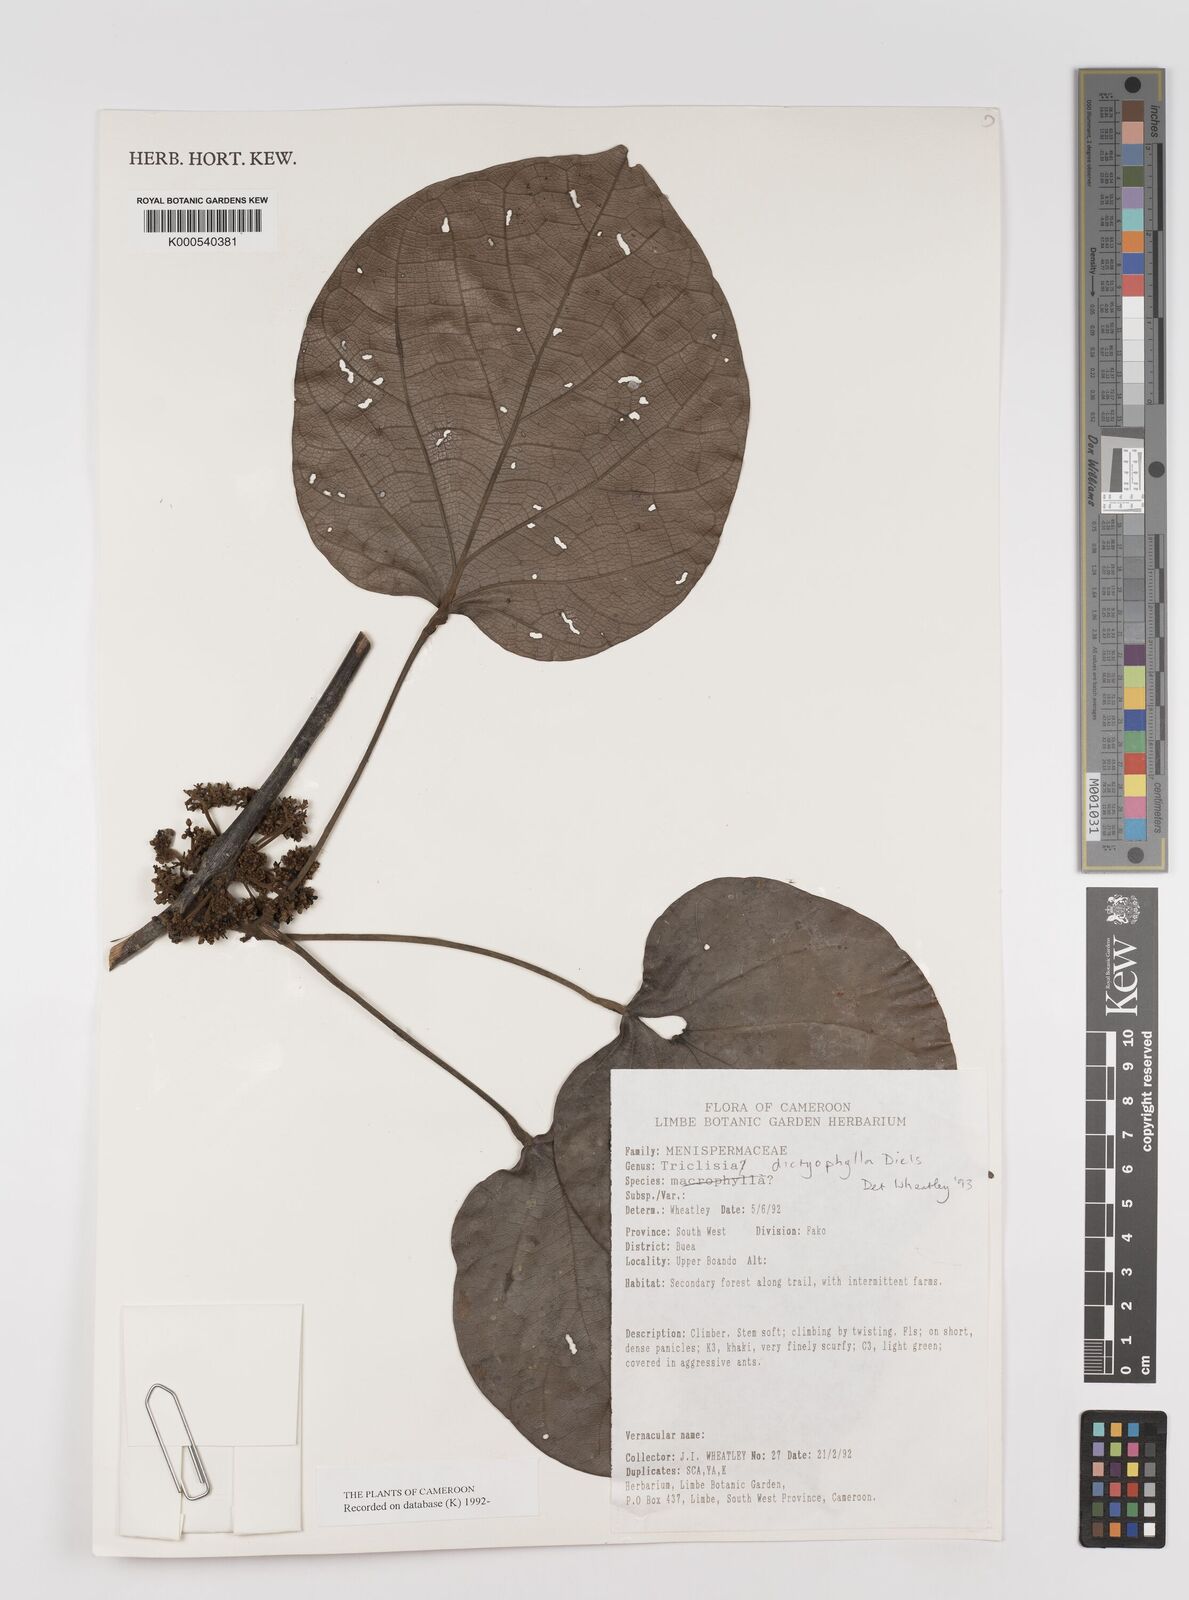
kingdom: Plantae
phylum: Tracheophyta
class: Magnoliopsida
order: Ranunculales
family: Menispermaceae
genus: Triclisia
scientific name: Triclisia dictyophylla
